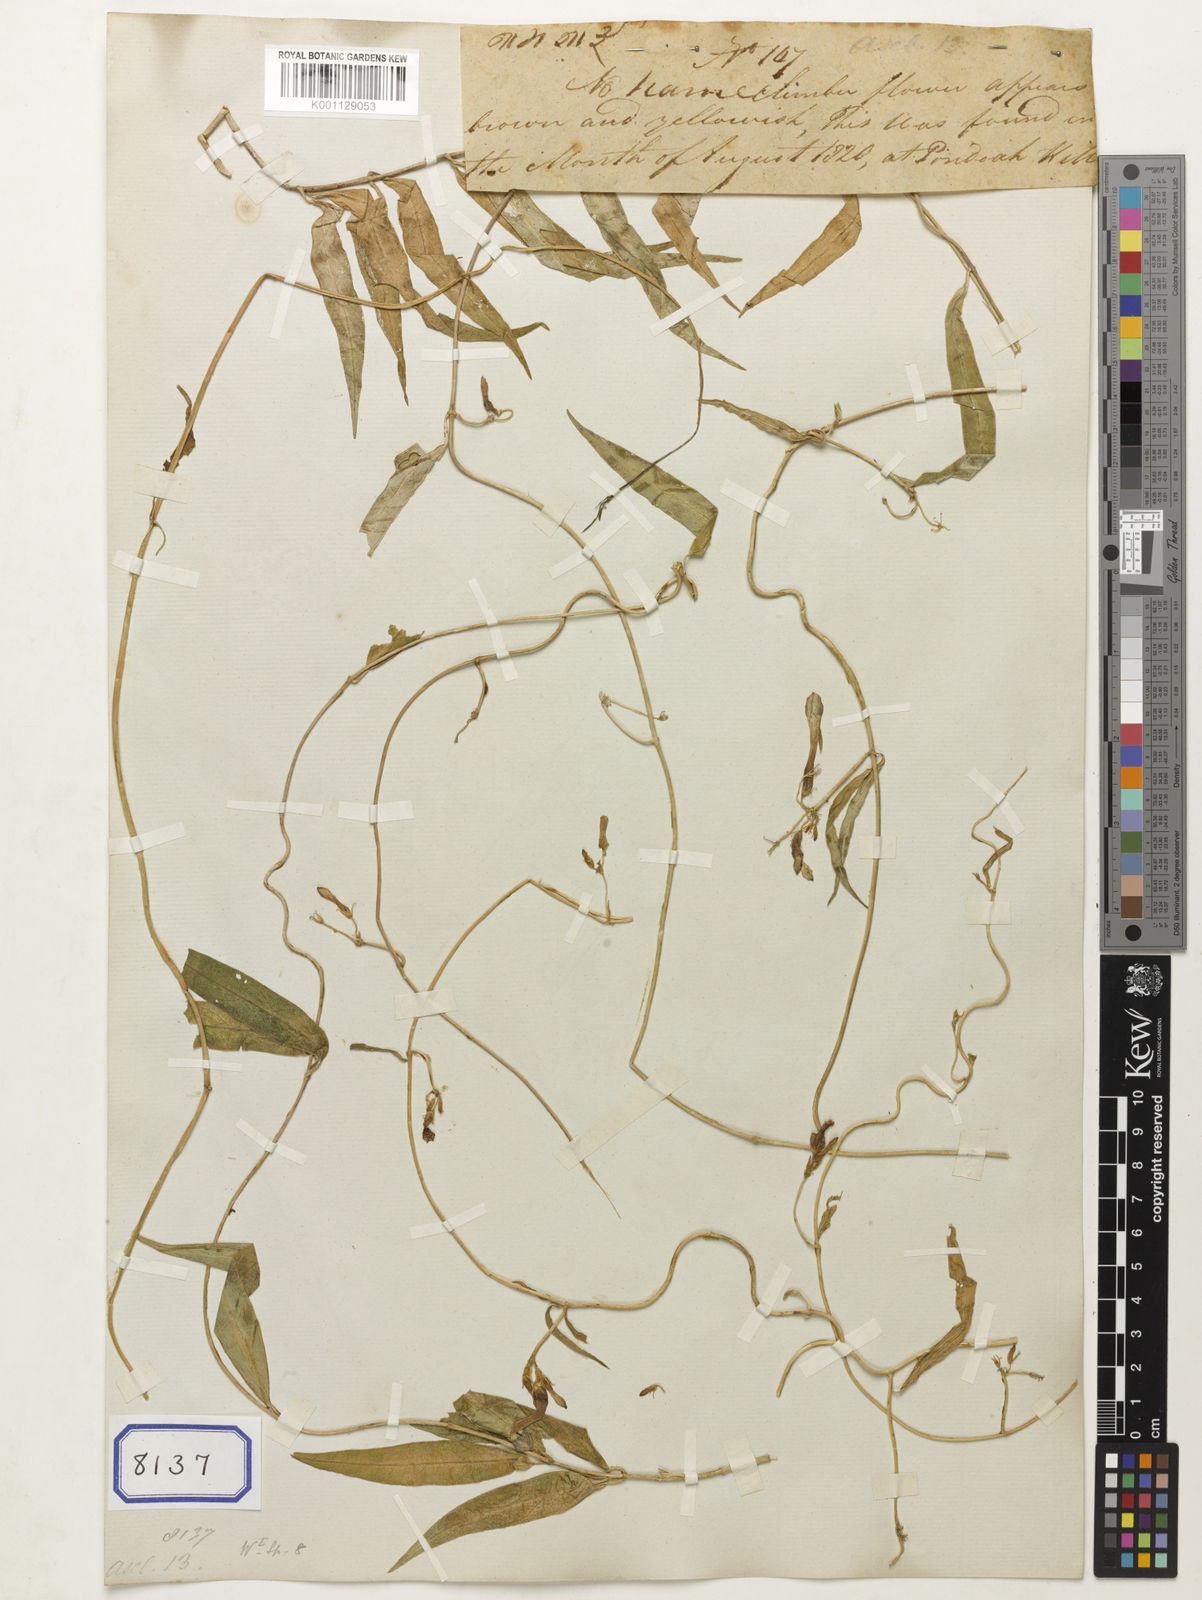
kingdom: Plantae
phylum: Tracheophyta
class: Magnoliopsida
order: Gentianales
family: Apocynaceae
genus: Ceropegia
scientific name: Ceropegia angustifolia
